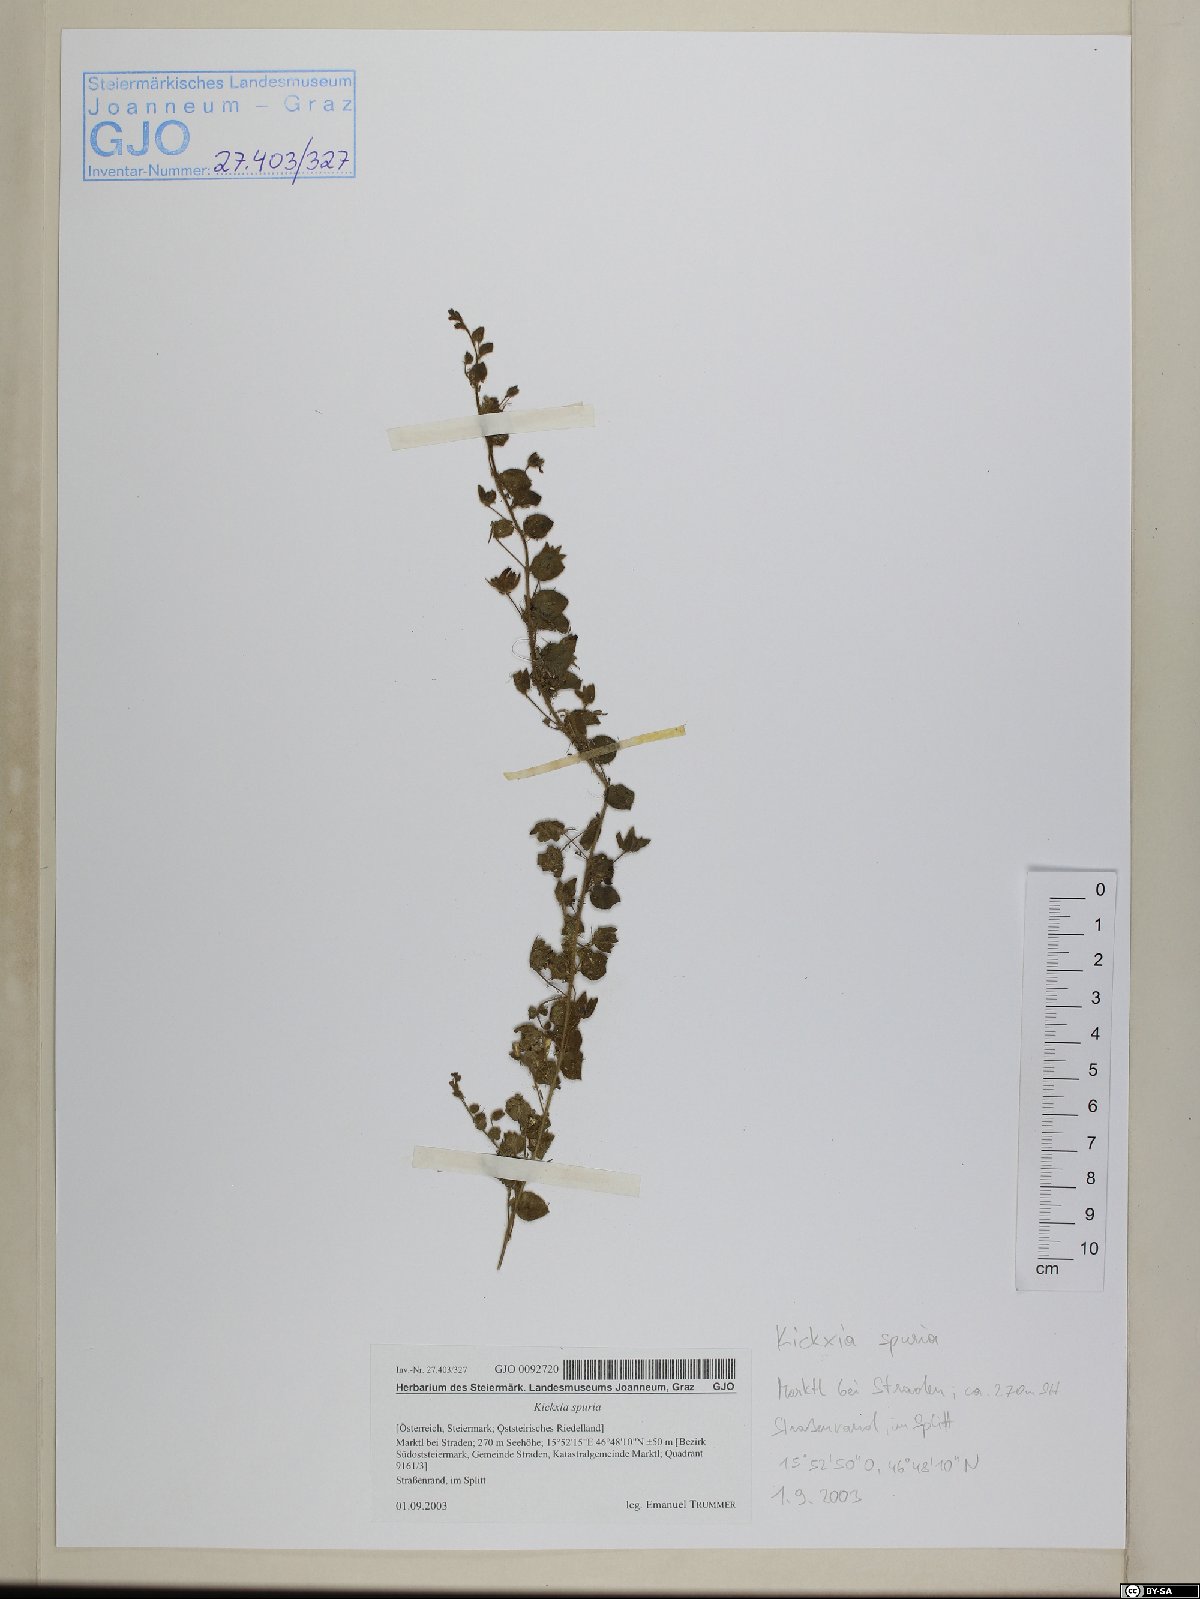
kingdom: Plantae
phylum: Tracheophyta
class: Magnoliopsida
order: Lamiales
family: Plantaginaceae
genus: Kickxia
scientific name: Kickxia spuria
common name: Round-leaved fluellen
